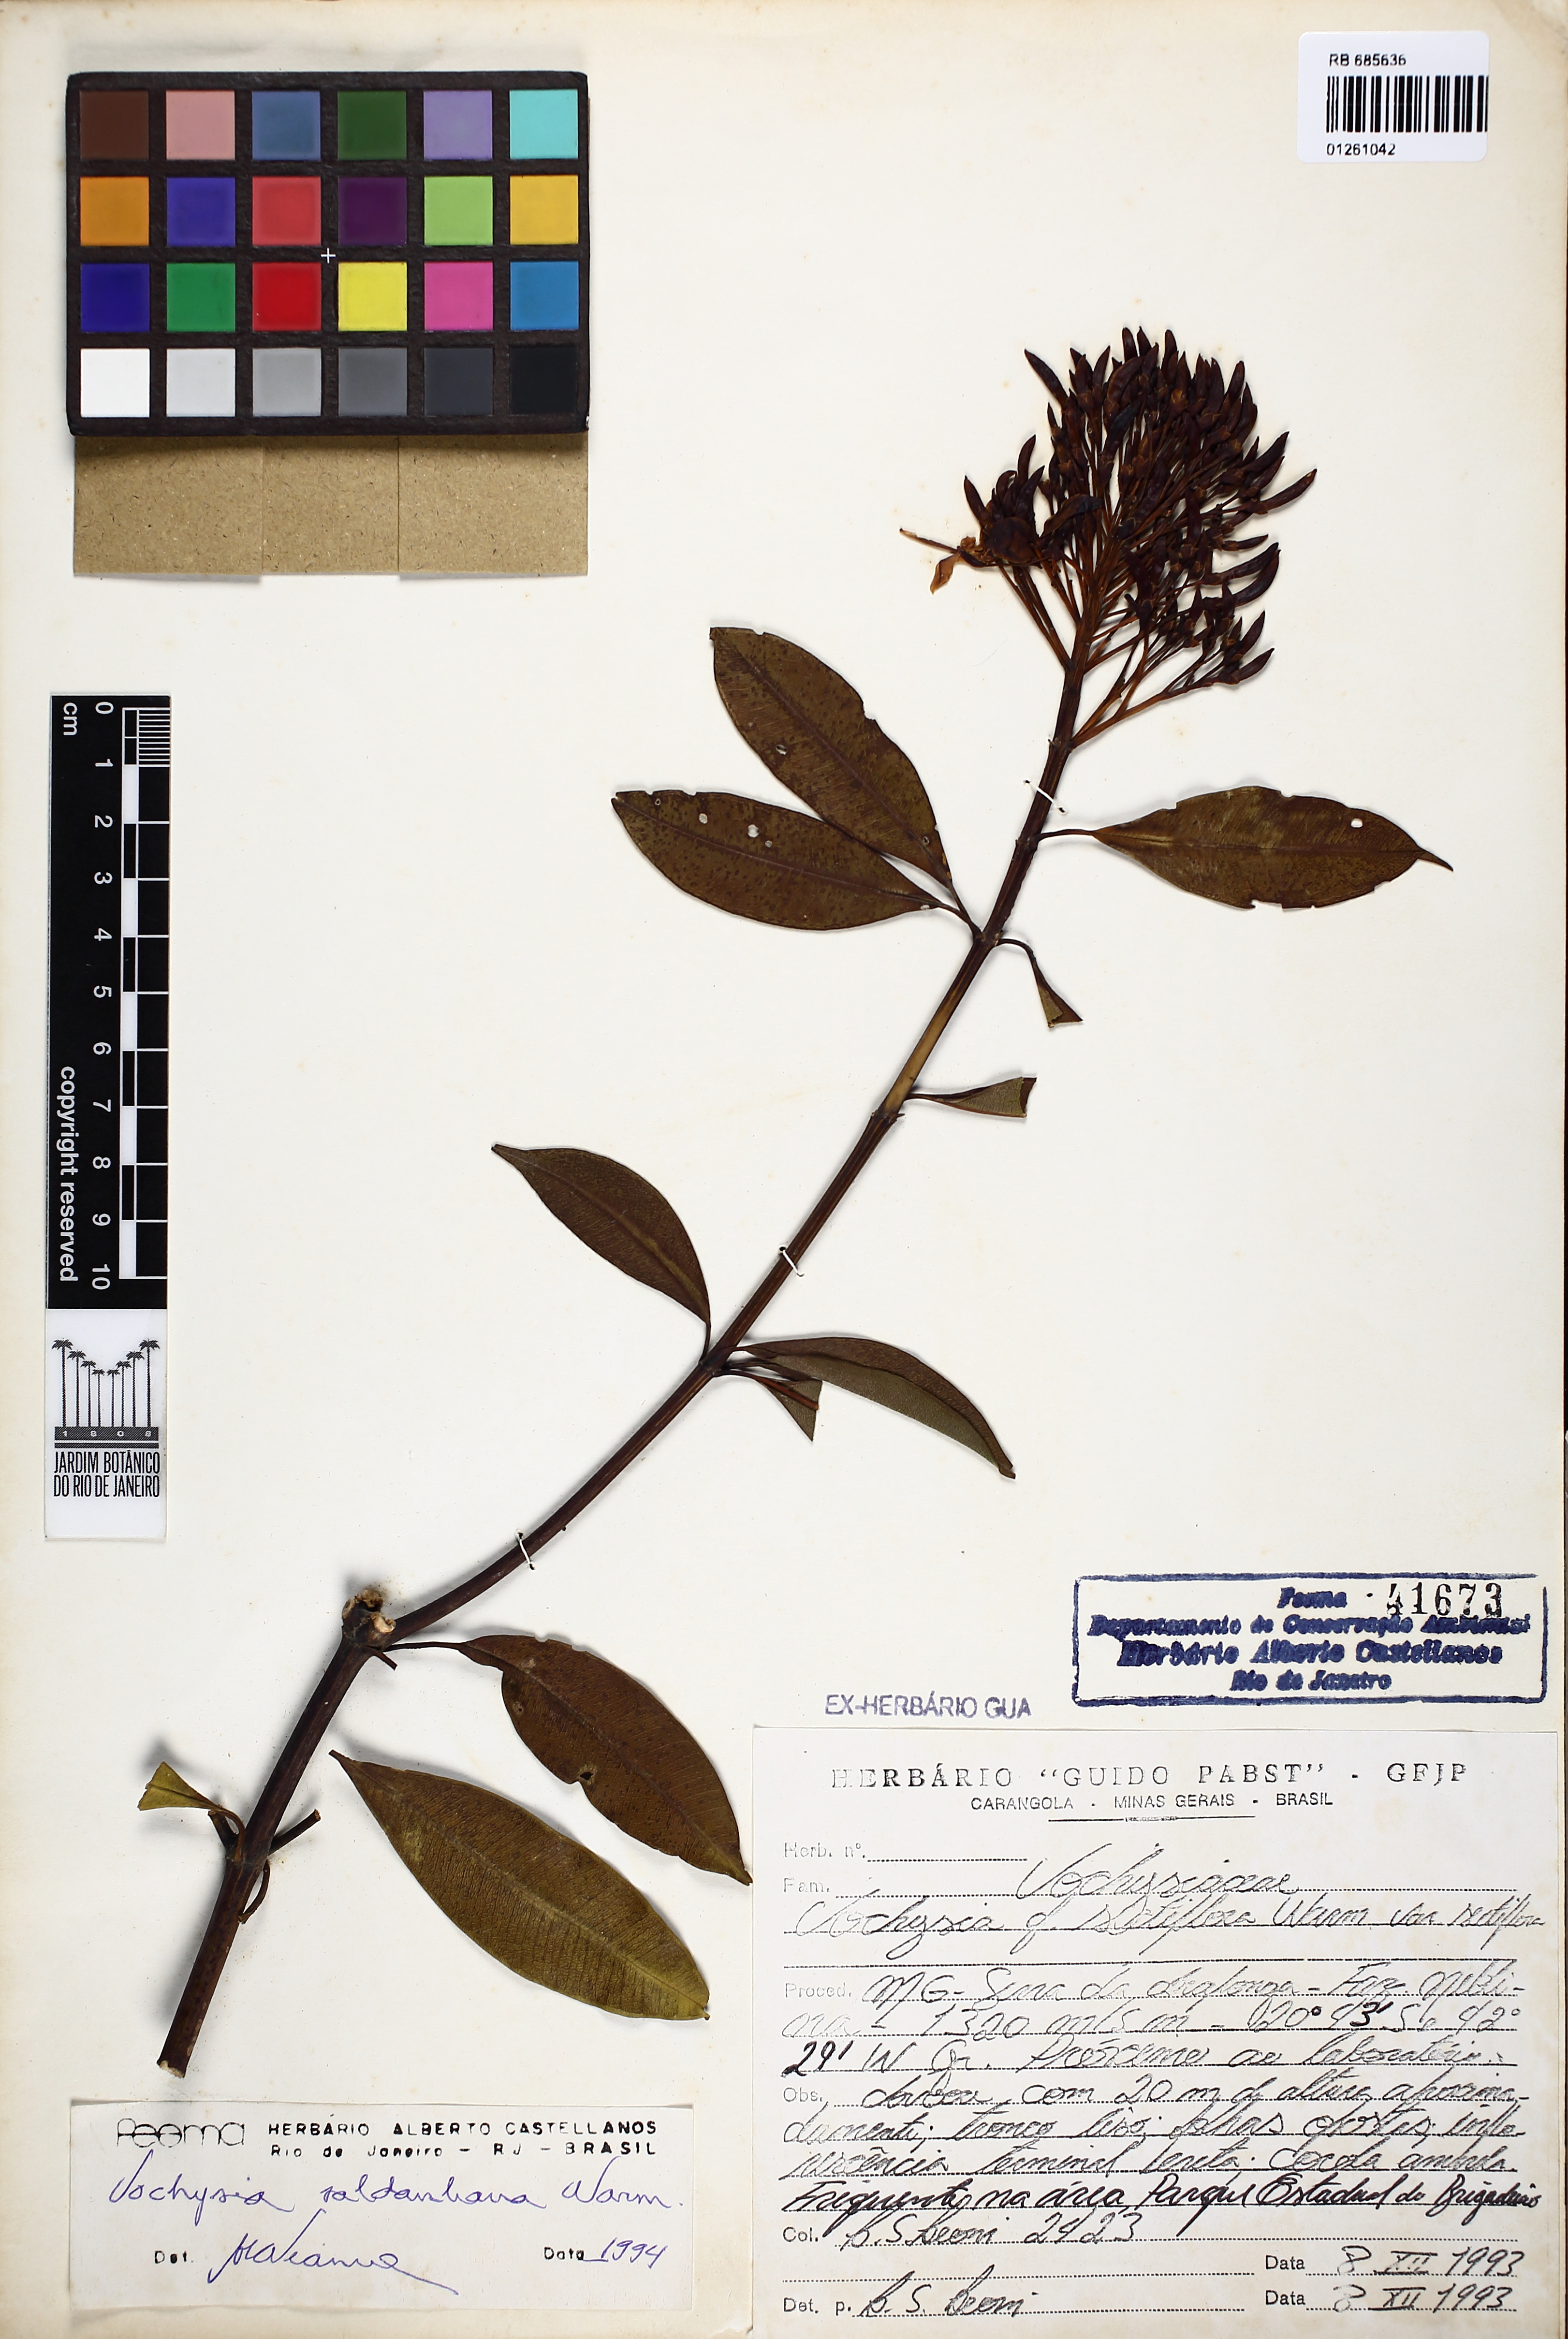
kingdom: Plantae
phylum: Tracheophyta
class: Magnoliopsida
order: Myrtales
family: Vochysiaceae
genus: Vochysia
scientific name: Vochysia saldanhana
